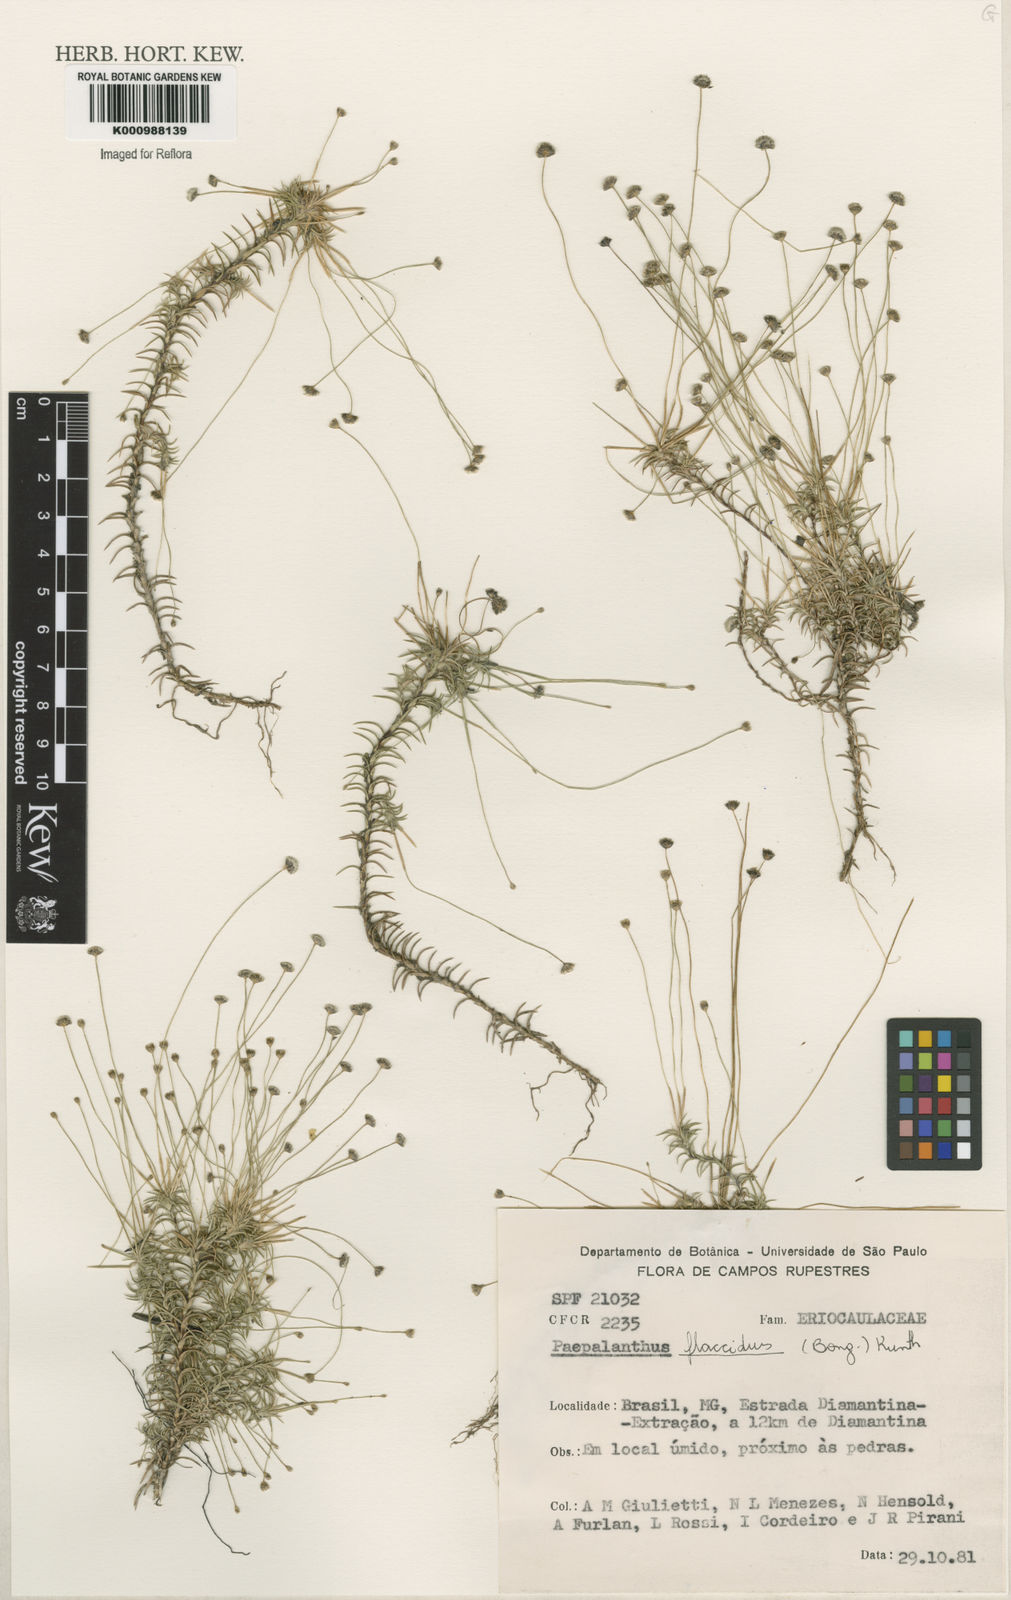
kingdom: Plantae
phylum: Tracheophyta
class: Liliopsida
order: Poales
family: Eriocaulaceae
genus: Paepalanthus
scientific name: Paepalanthus flaccidus
